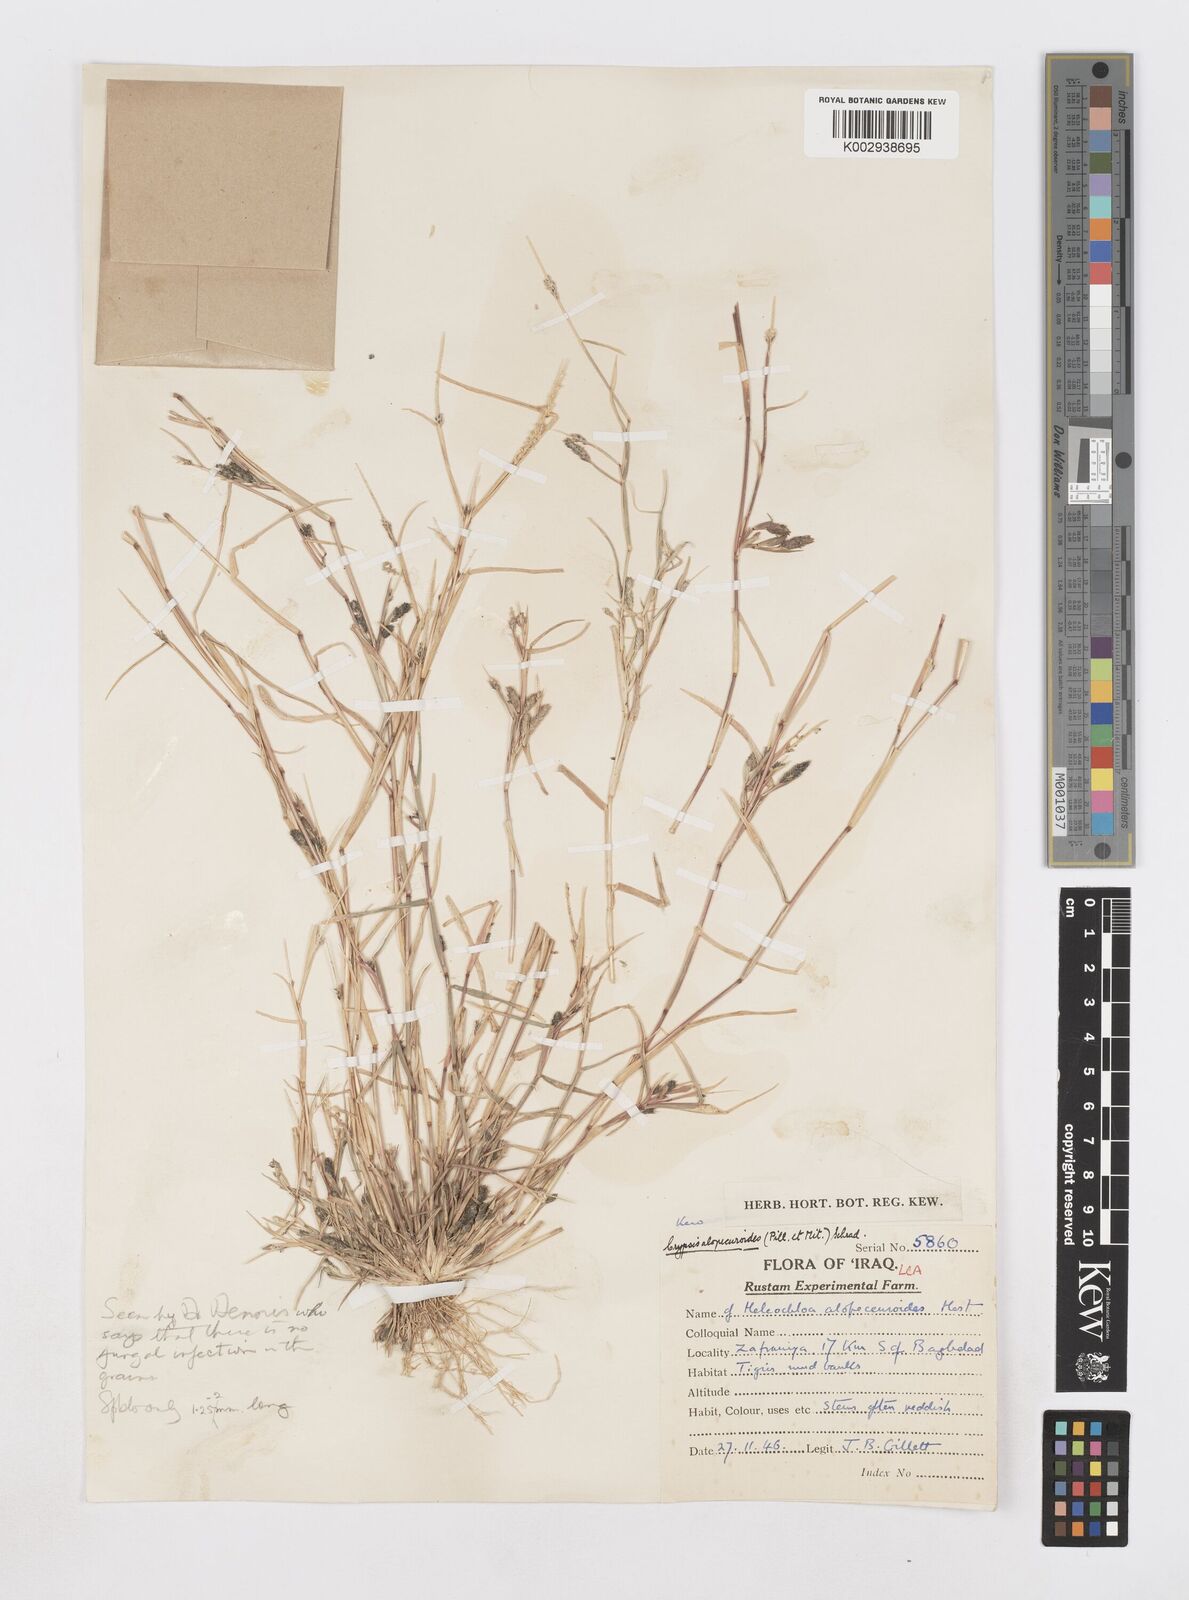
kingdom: Plantae
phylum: Tracheophyta
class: Liliopsida
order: Poales
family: Poaceae
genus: Sporobolus
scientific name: Sporobolus alopecuroides
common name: Foxtail pricklegrass
